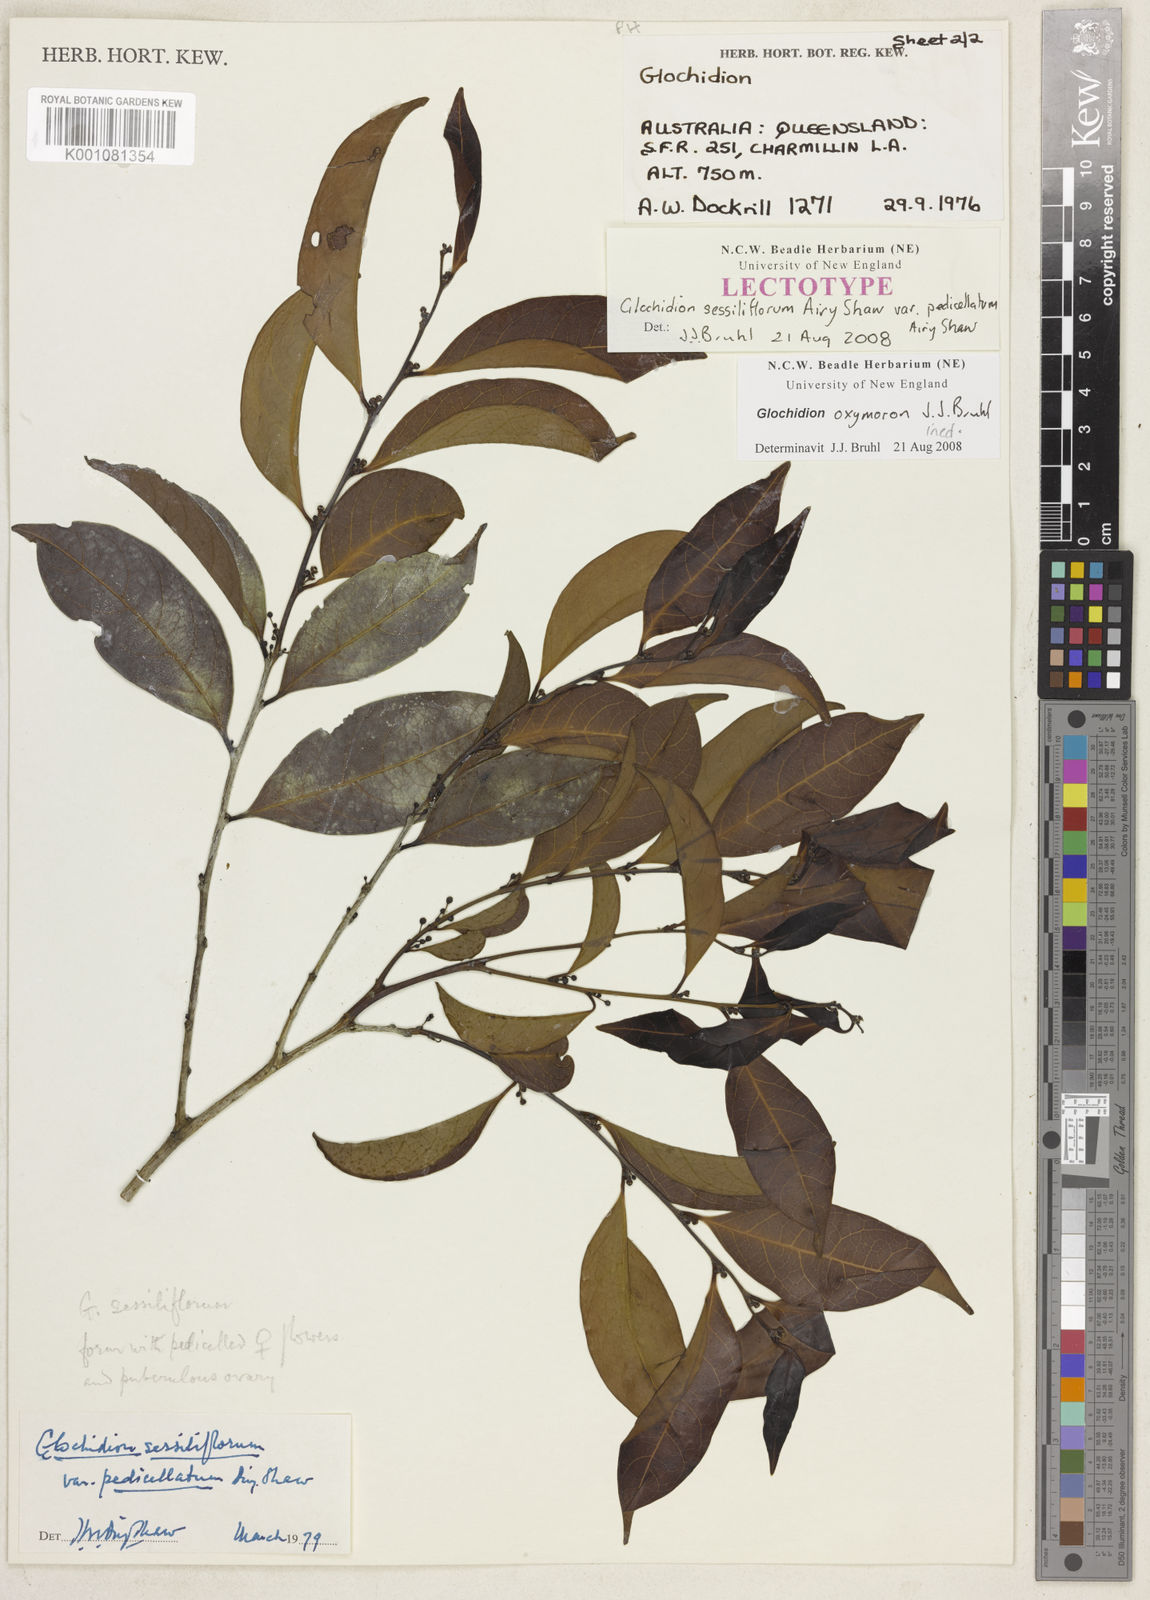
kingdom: Plantae
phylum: Tracheophyta
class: Magnoliopsida
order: Malpighiales
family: Phyllanthaceae
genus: Glochidion
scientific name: Glochidion
